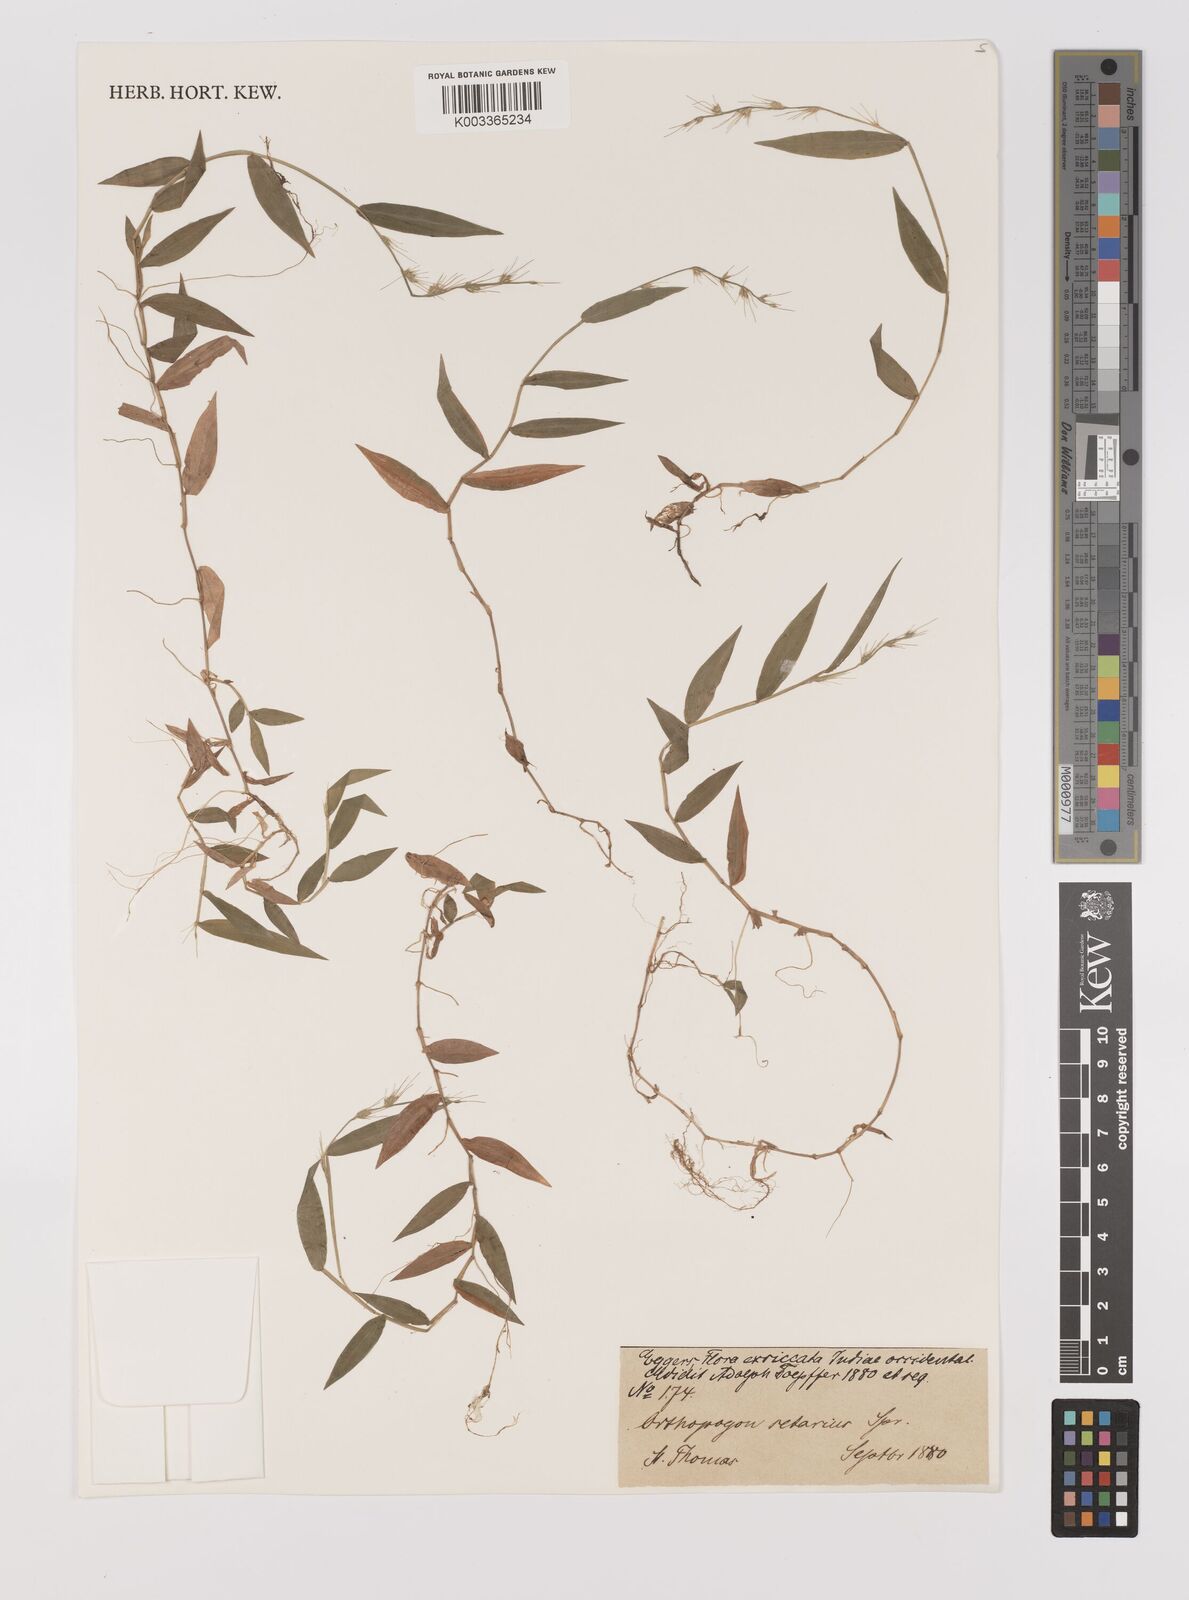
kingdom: Plantae
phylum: Tracheophyta
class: Liliopsida
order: Poales
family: Poaceae
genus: Oplismenus
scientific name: Oplismenus hirtellus
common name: Basketgrass
